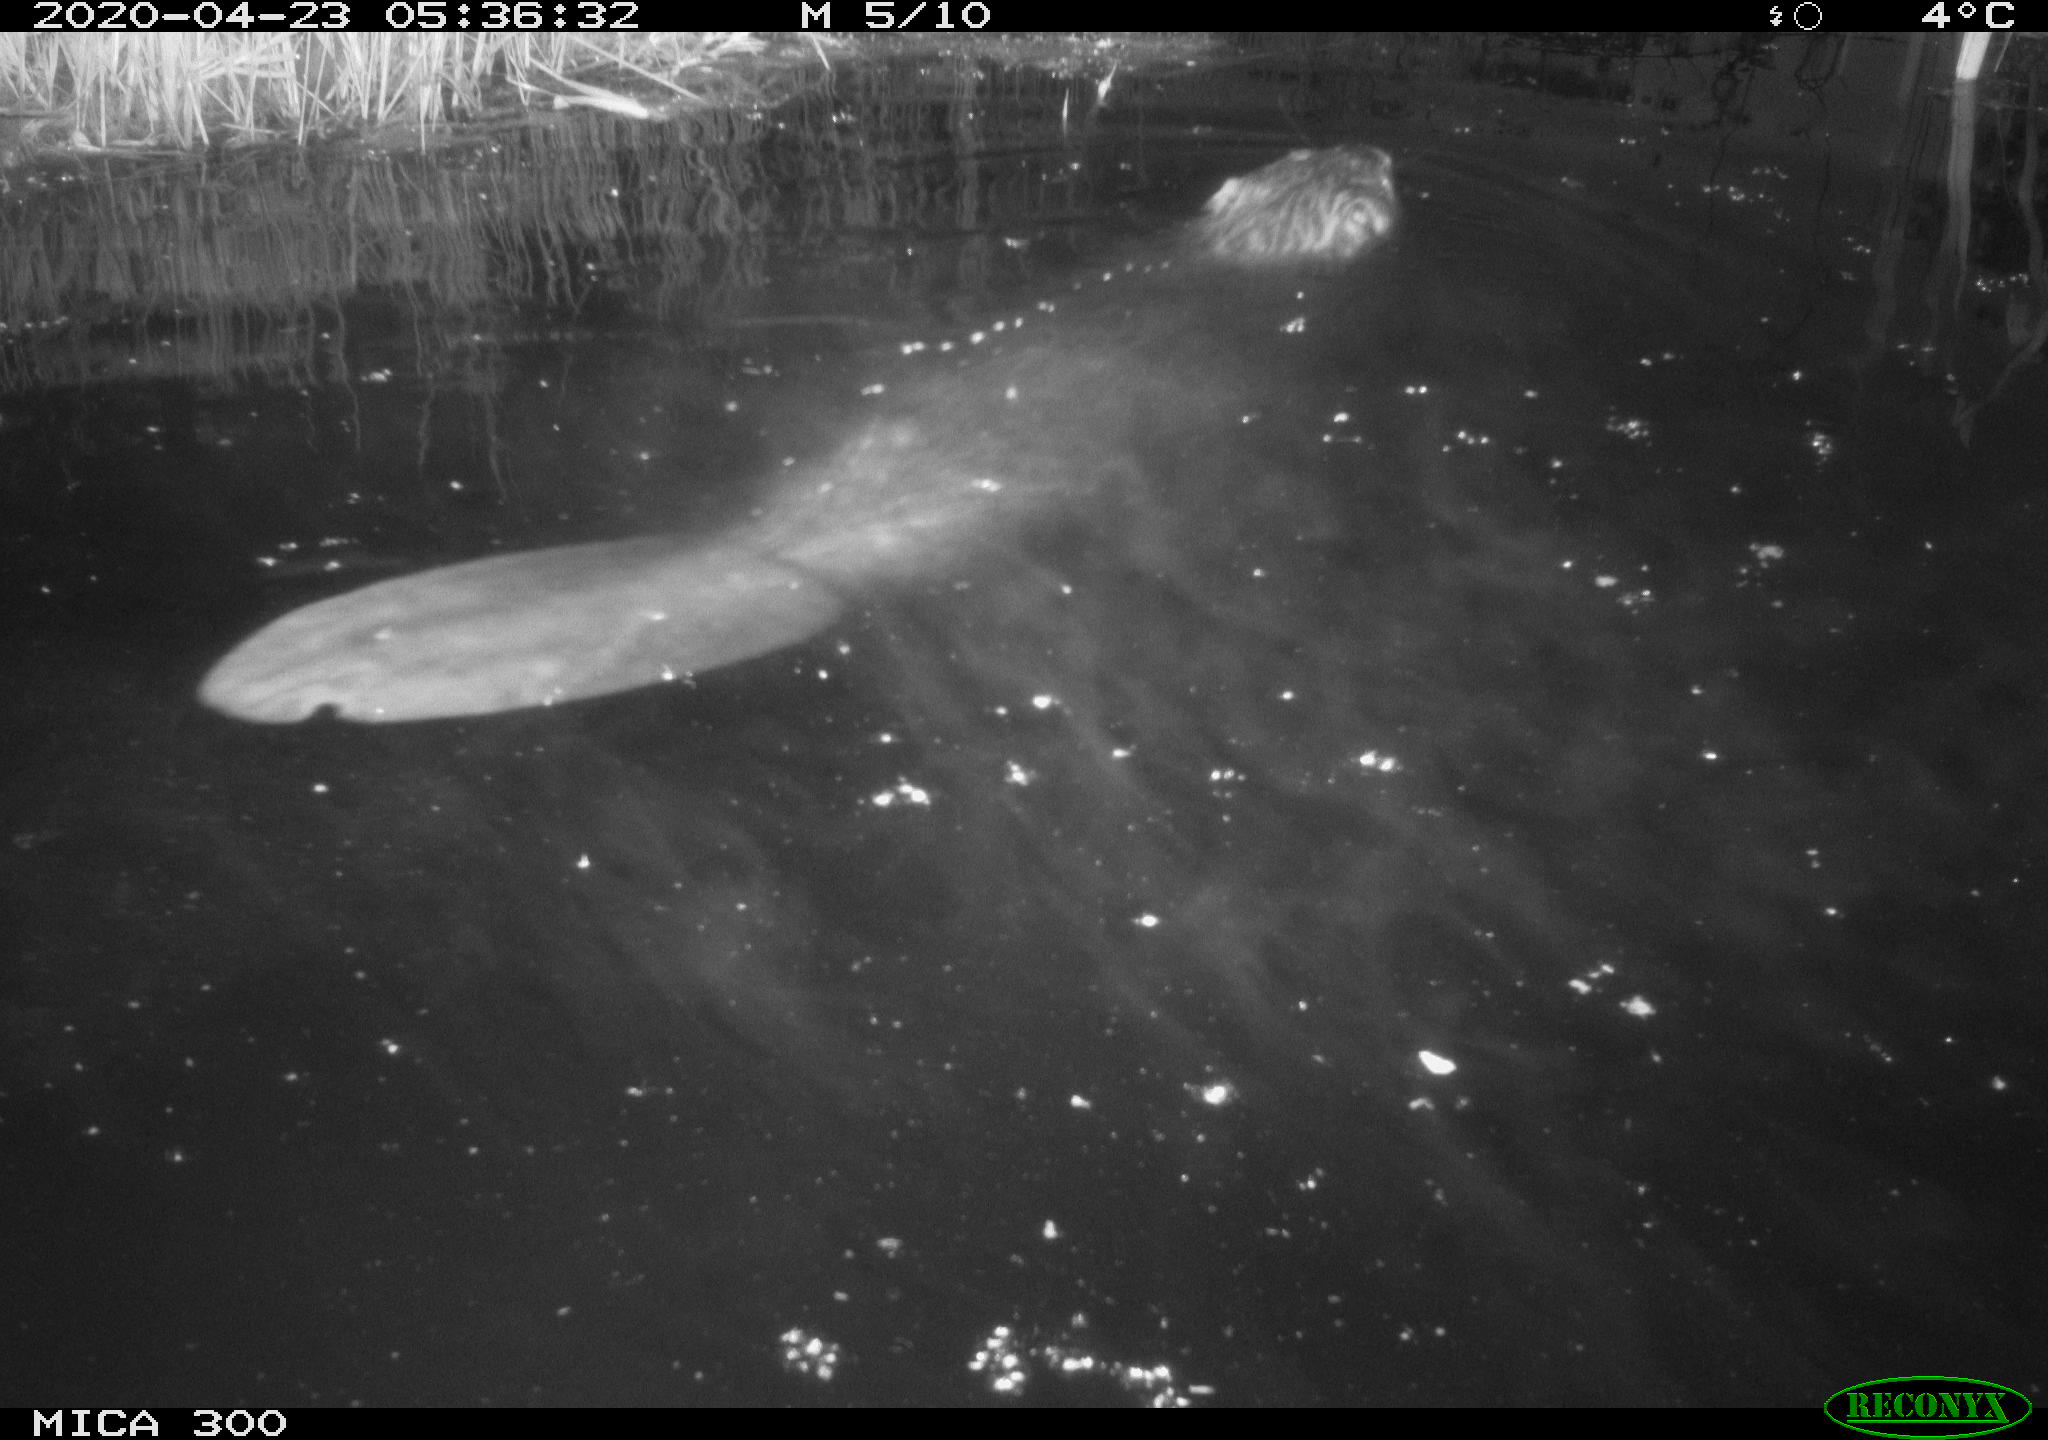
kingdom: Animalia
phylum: Chordata
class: Mammalia
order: Rodentia
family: Castoridae
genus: Castor
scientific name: Castor fiber
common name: Eurasian beaver
